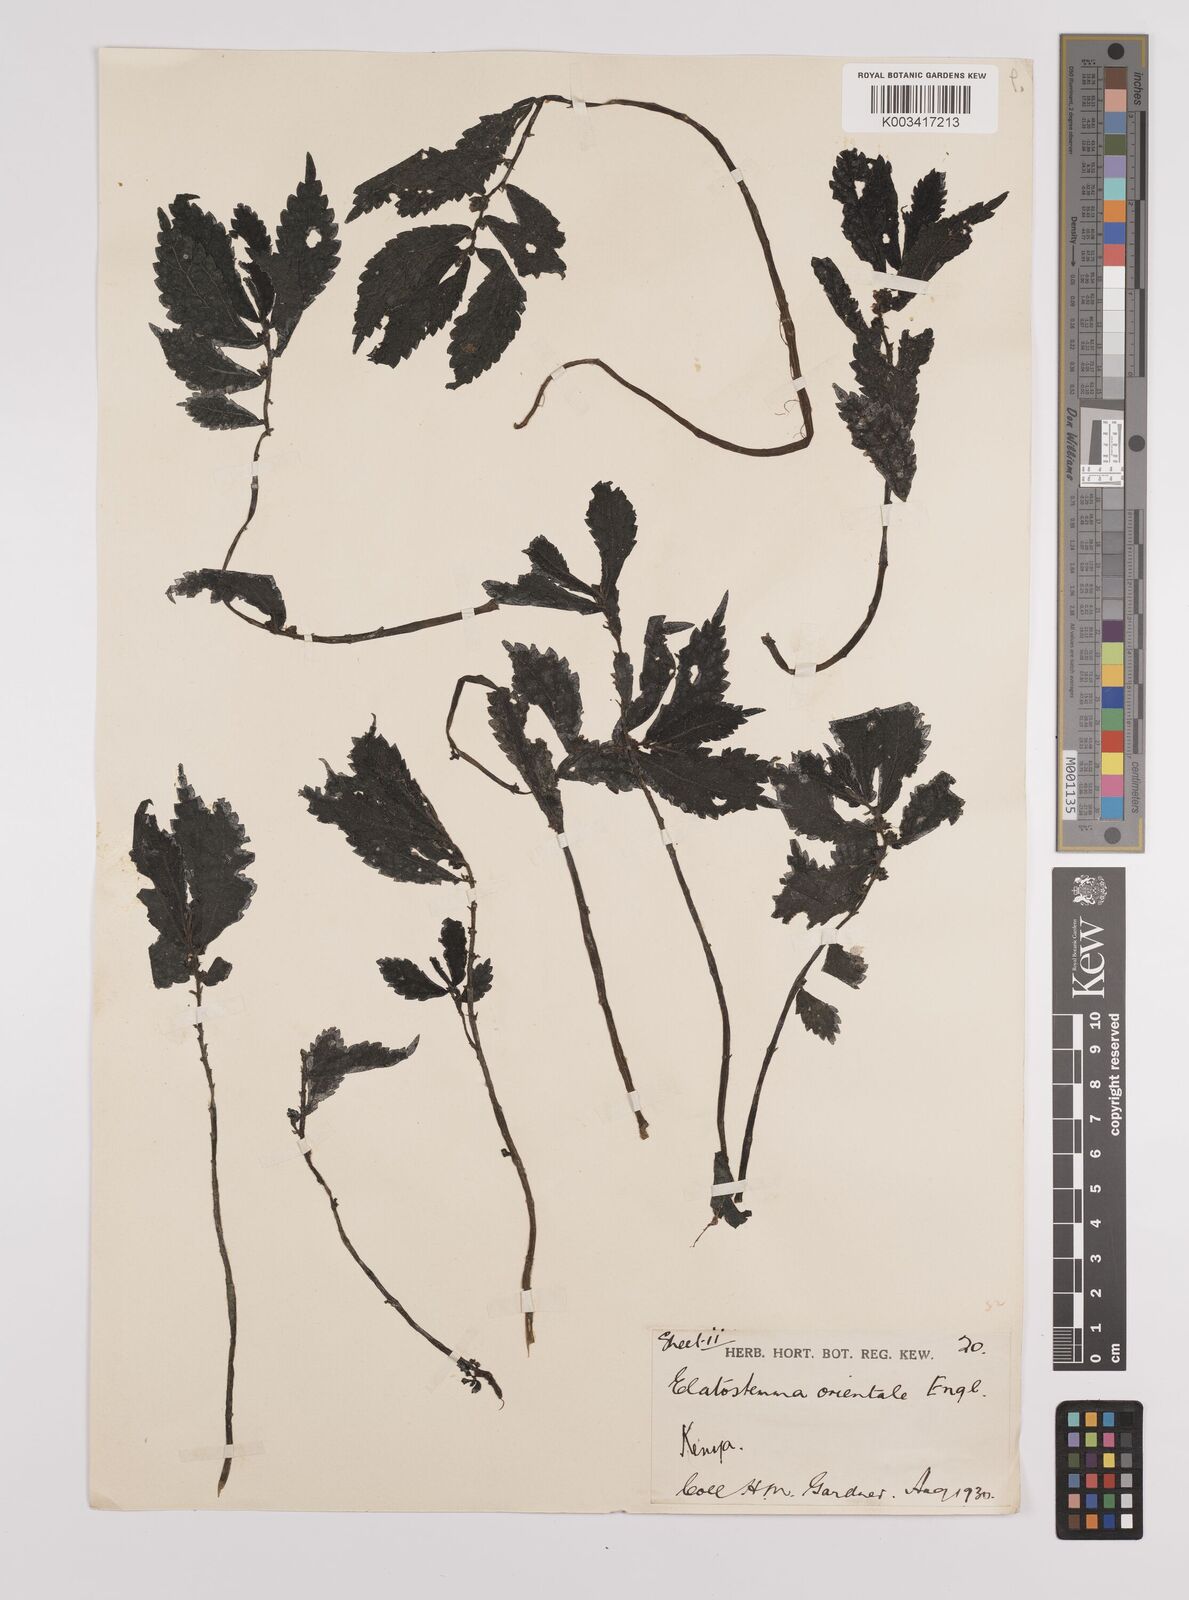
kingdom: Plantae
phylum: Tracheophyta
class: Magnoliopsida
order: Rosales
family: Urticaceae
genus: Elatostema
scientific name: Elatostema monticola
